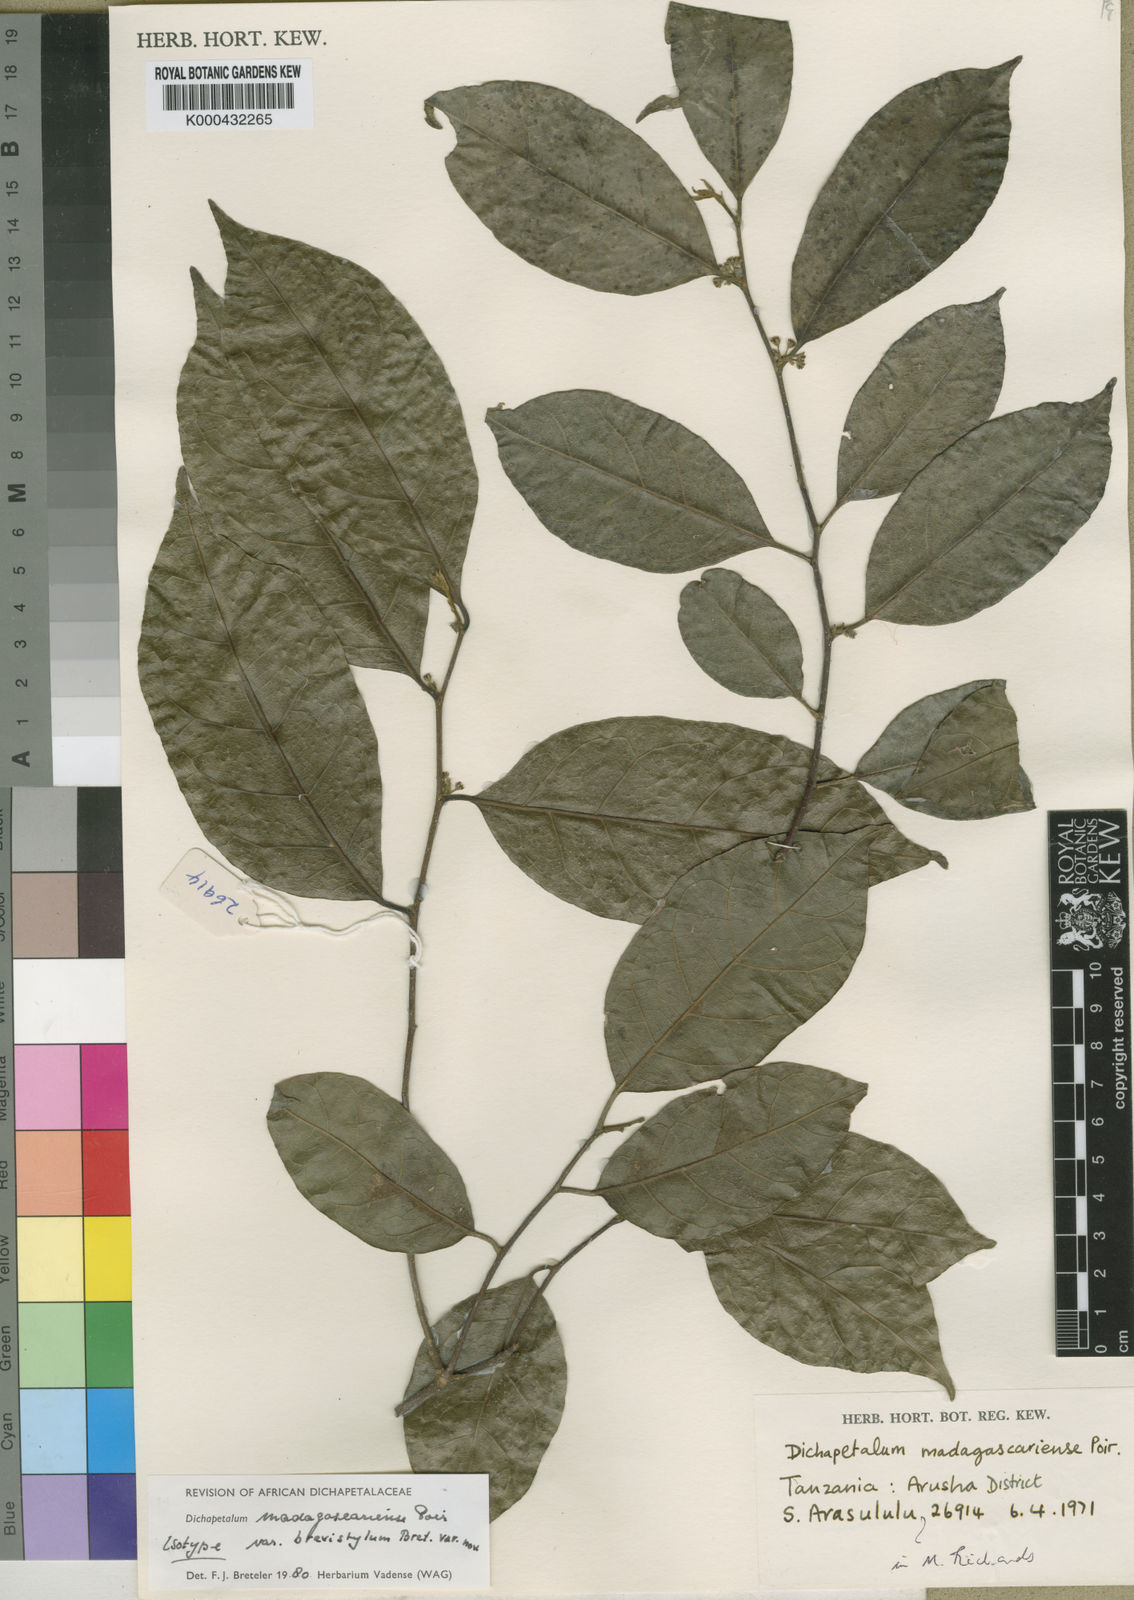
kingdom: Plantae
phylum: Tracheophyta
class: Magnoliopsida
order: Malpighiales
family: Dichapetalaceae
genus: Dichapetalum
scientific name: Dichapetalum madagascariense
